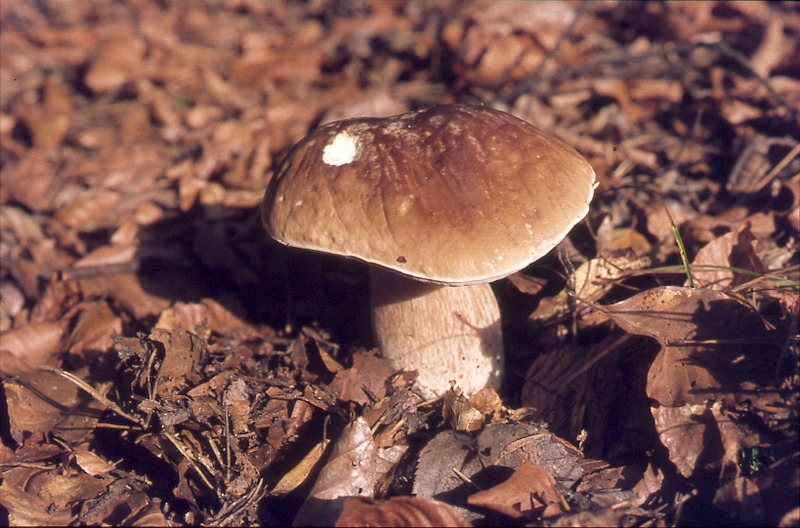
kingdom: Fungi
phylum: Basidiomycota
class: Agaricomycetes
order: Boletales
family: Boletaceae
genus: Boletus
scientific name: Boletus edulis
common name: Cep
